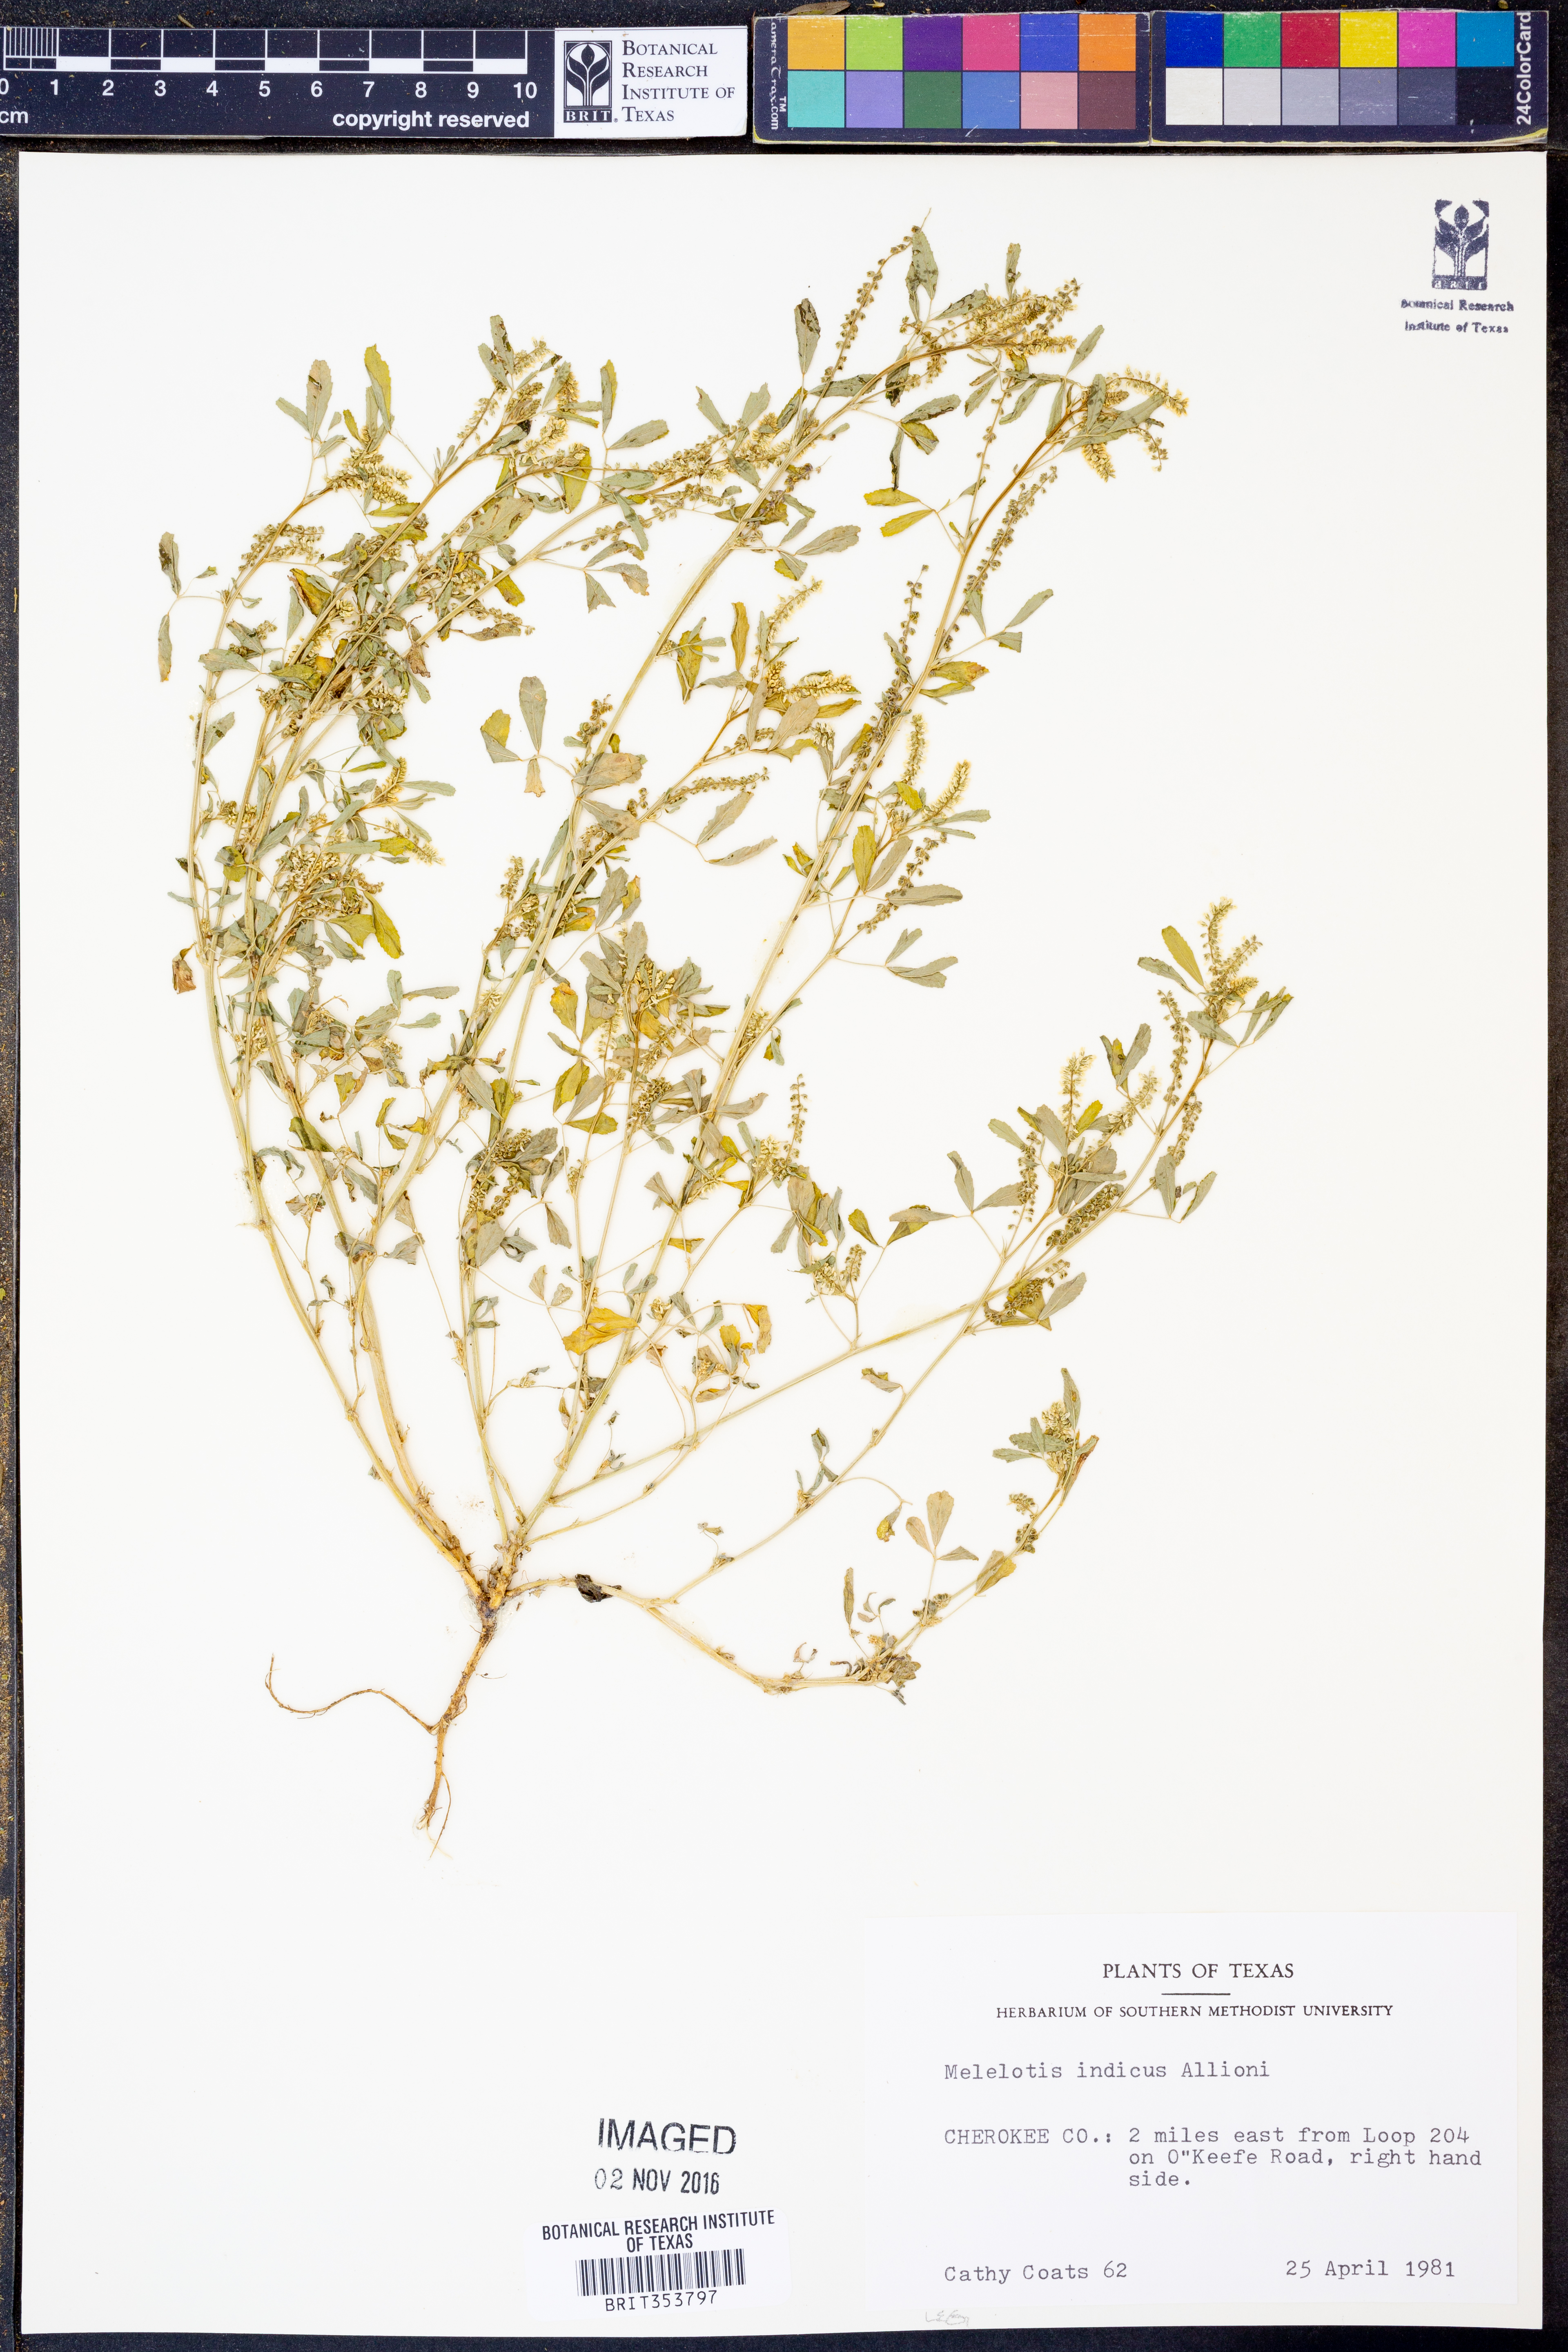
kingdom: Plantae
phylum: Tracheophyta
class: Magnoliopsida
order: Fabales
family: Fabaceae
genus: Melilotus
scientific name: Melilotus indicus
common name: Small melilot
